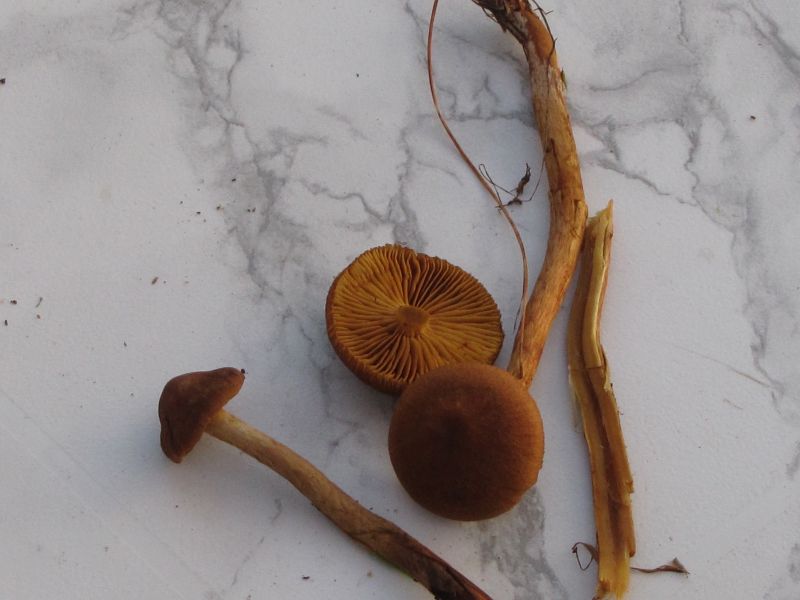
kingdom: Fungi
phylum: Basidiomycota
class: Agaricomycetes
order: Agaricales
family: Cortinariaceae
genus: Cortinarius
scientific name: Cortinarius gentilis
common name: bæltet slørhat
